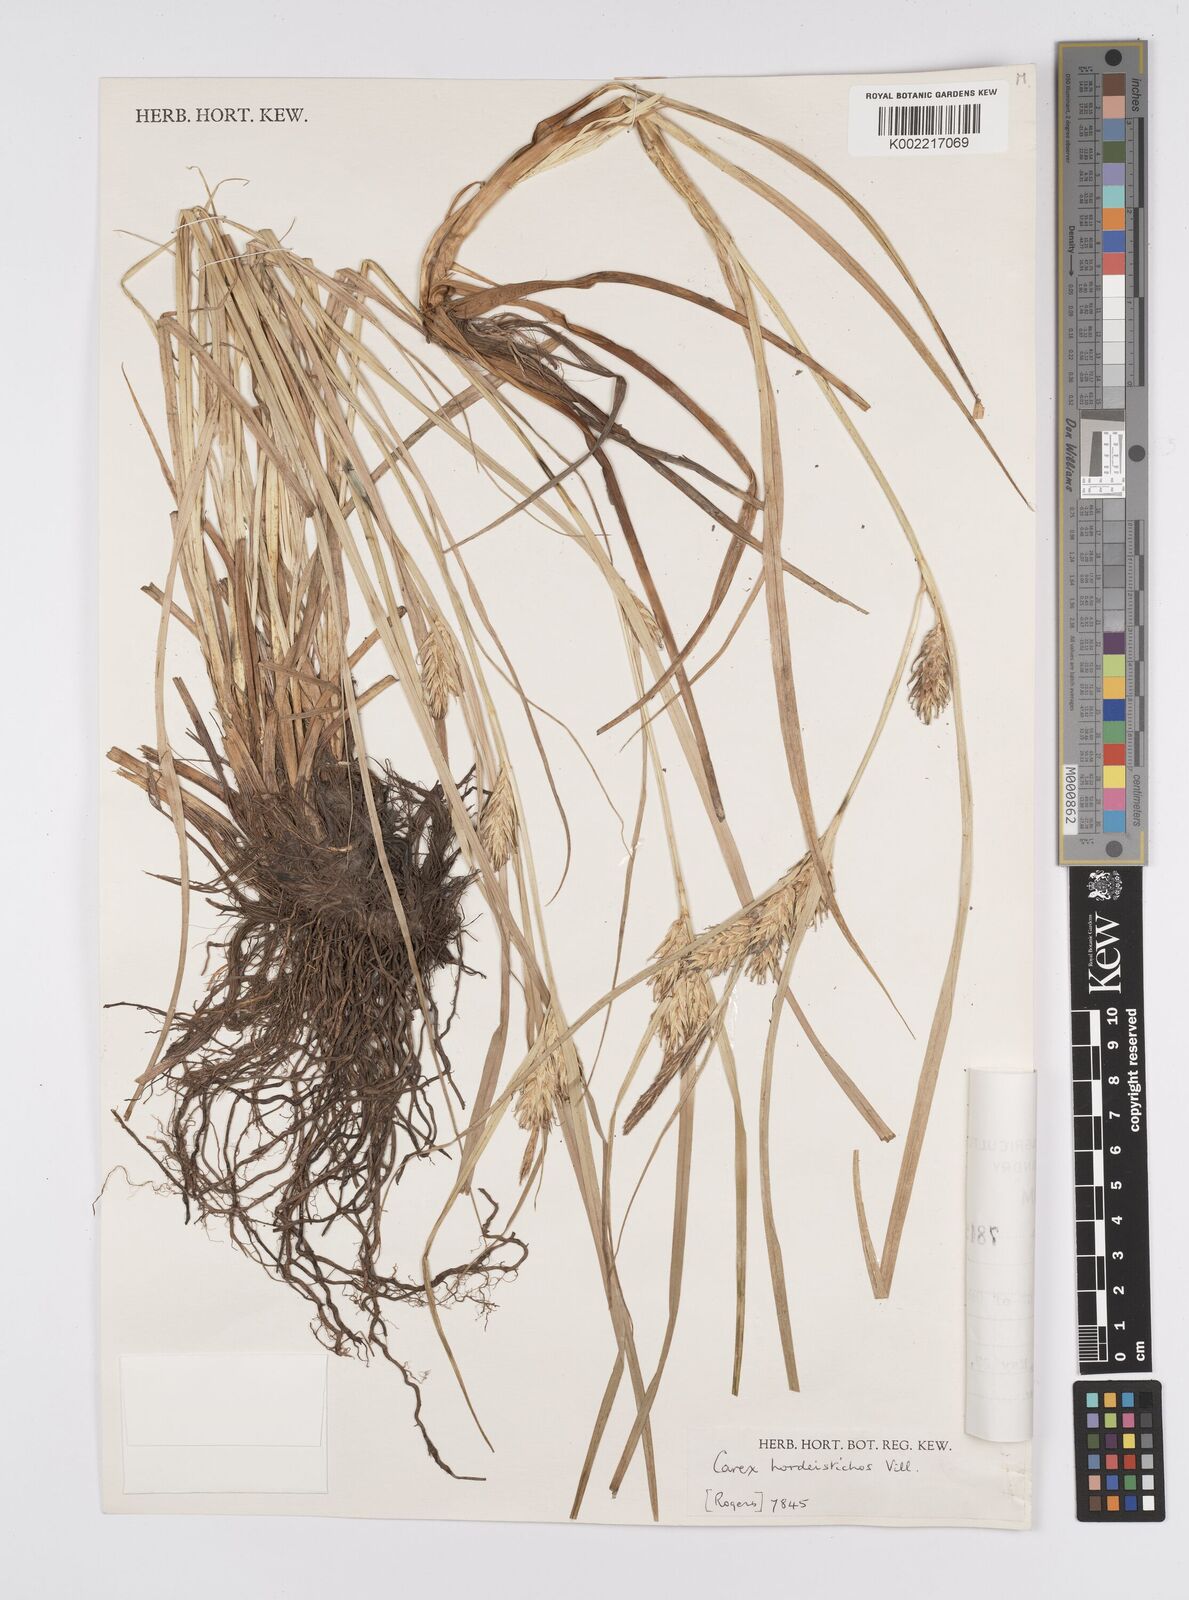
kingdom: Plantae
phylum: Tracheophyta
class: Liliopsida
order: Poales
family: Cyperaceae
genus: Carex
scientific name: Carex hordeistichos
